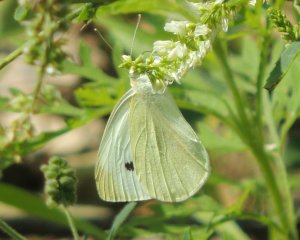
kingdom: Animalia
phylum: Arthropoda
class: Insecta
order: Lepidoptera
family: Pieridae
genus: Pieris
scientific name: Pieris rapae
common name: Cabbage White
